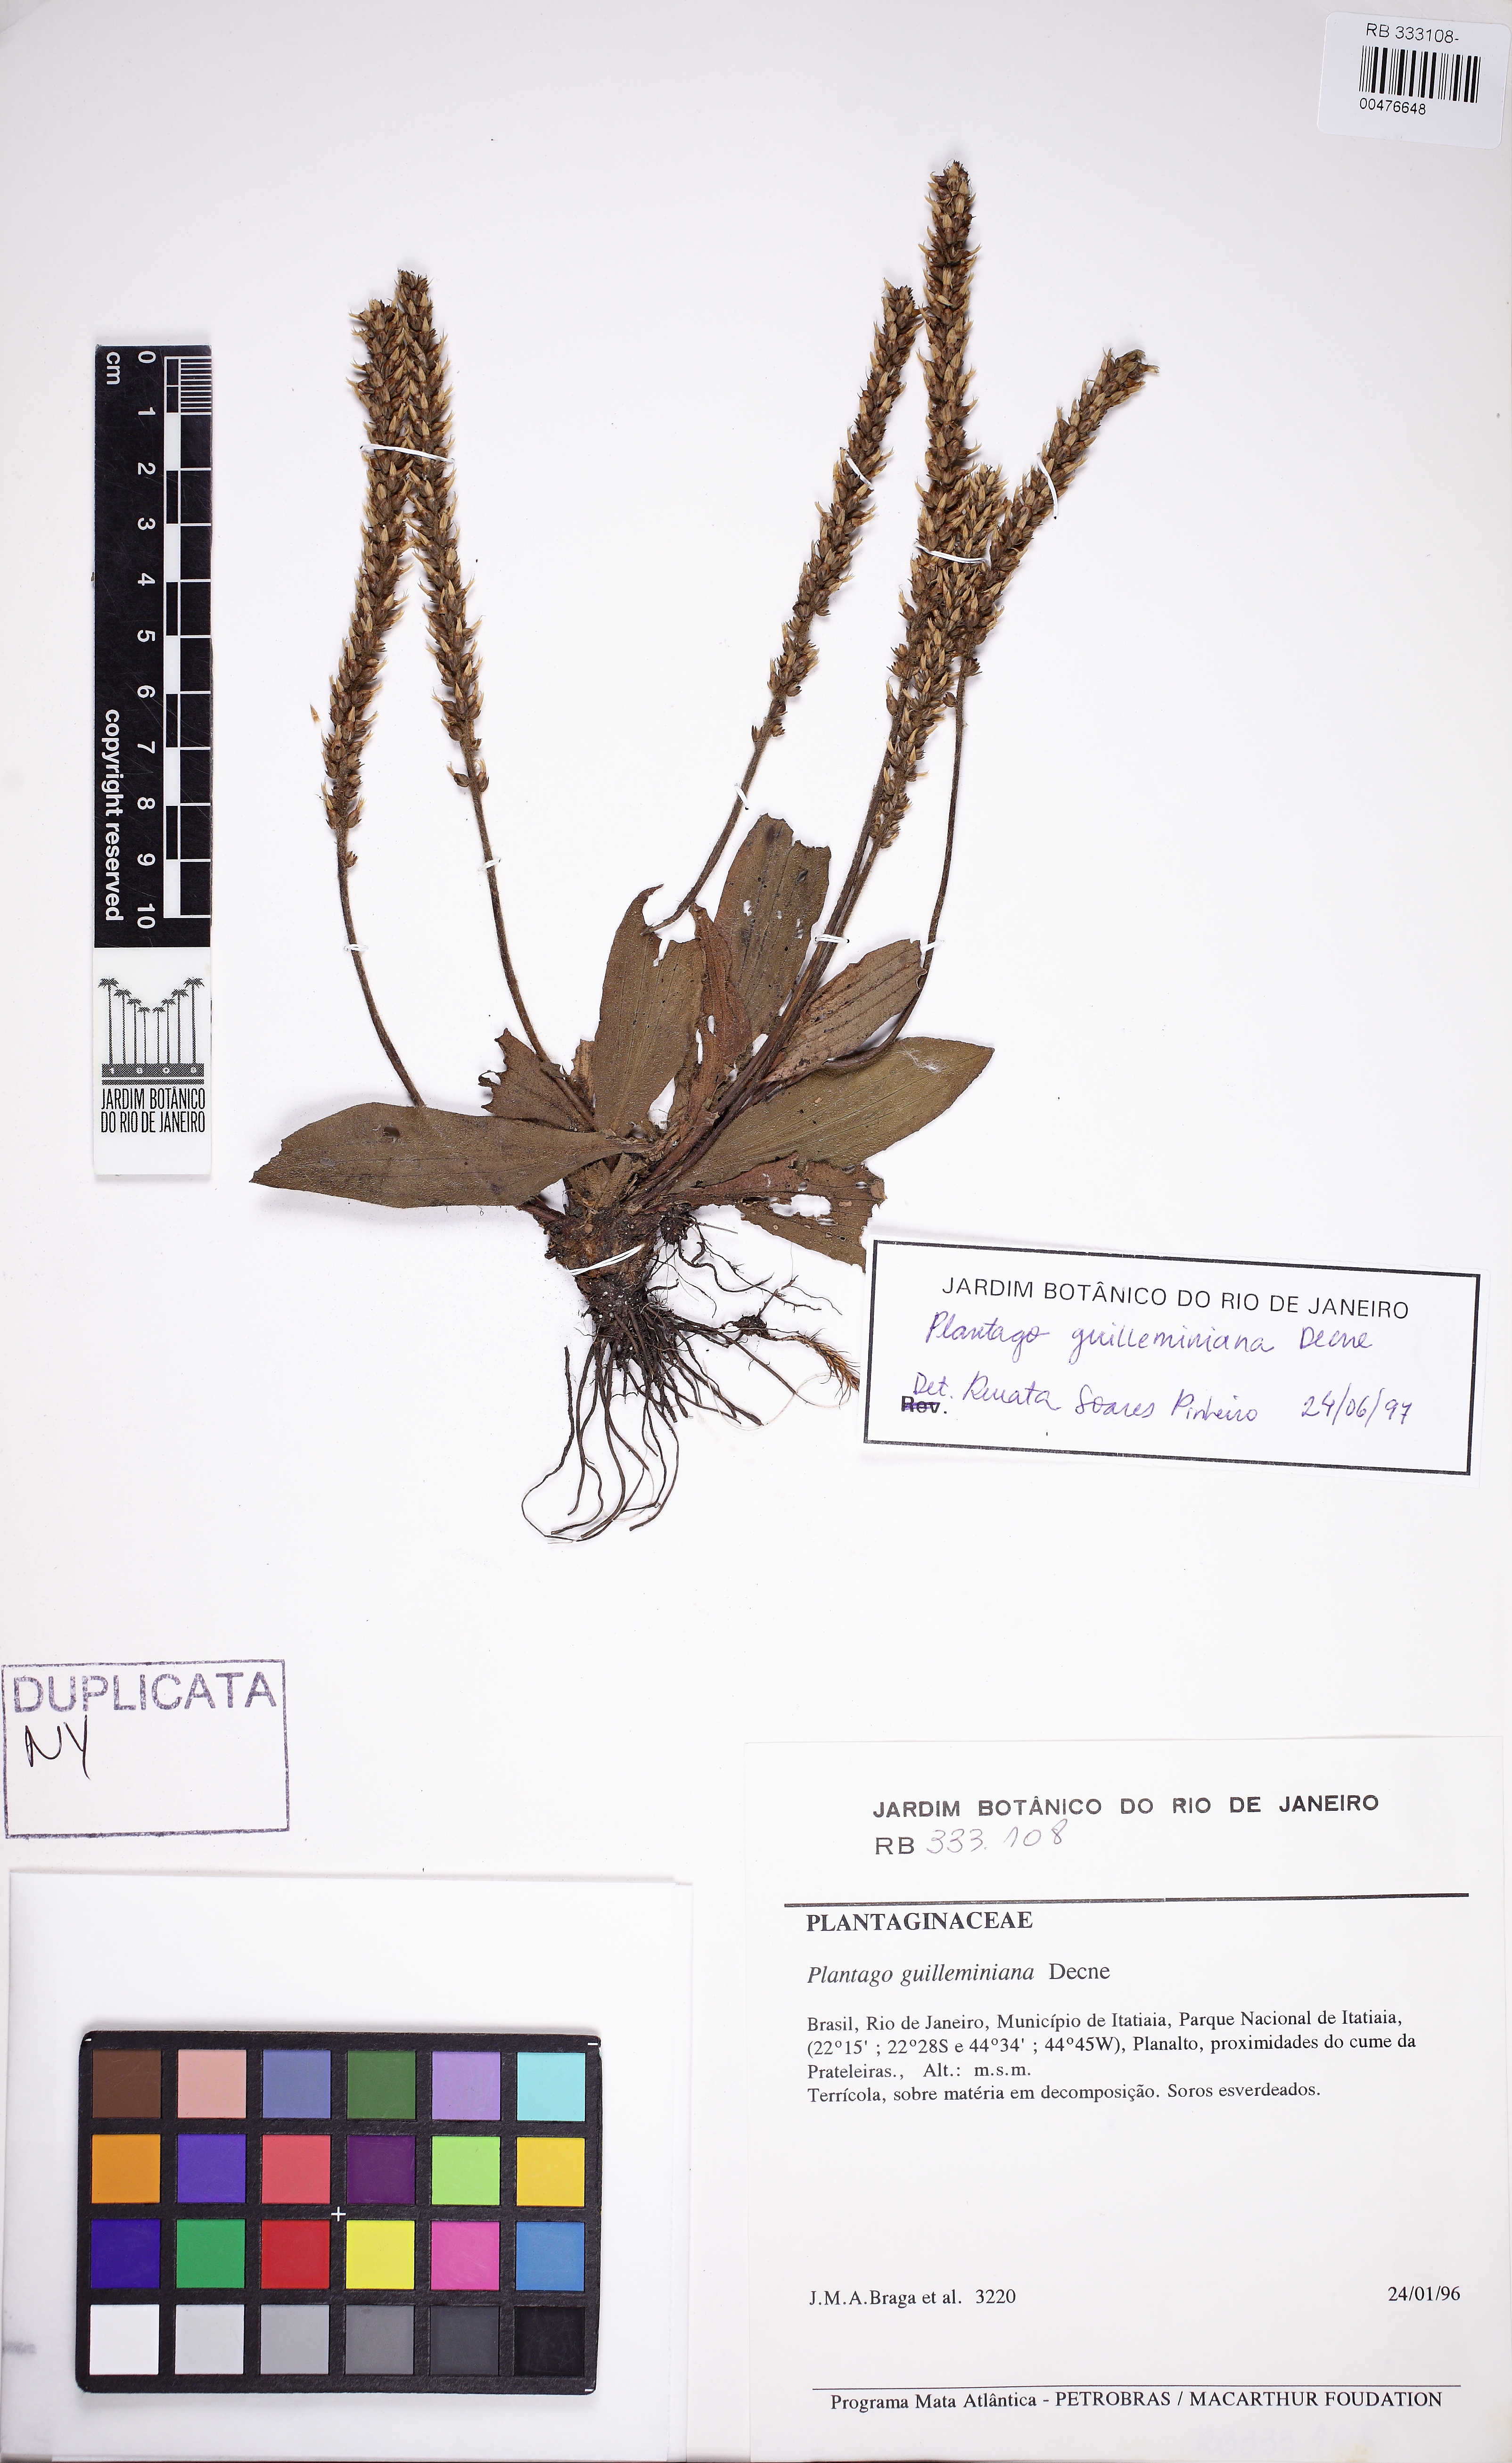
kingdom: Plantae
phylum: Tracheophyta
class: Magnoliopsida
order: Lamiales
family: Plantaginaceae
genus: Plantago
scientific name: Plantago guilleminiana
